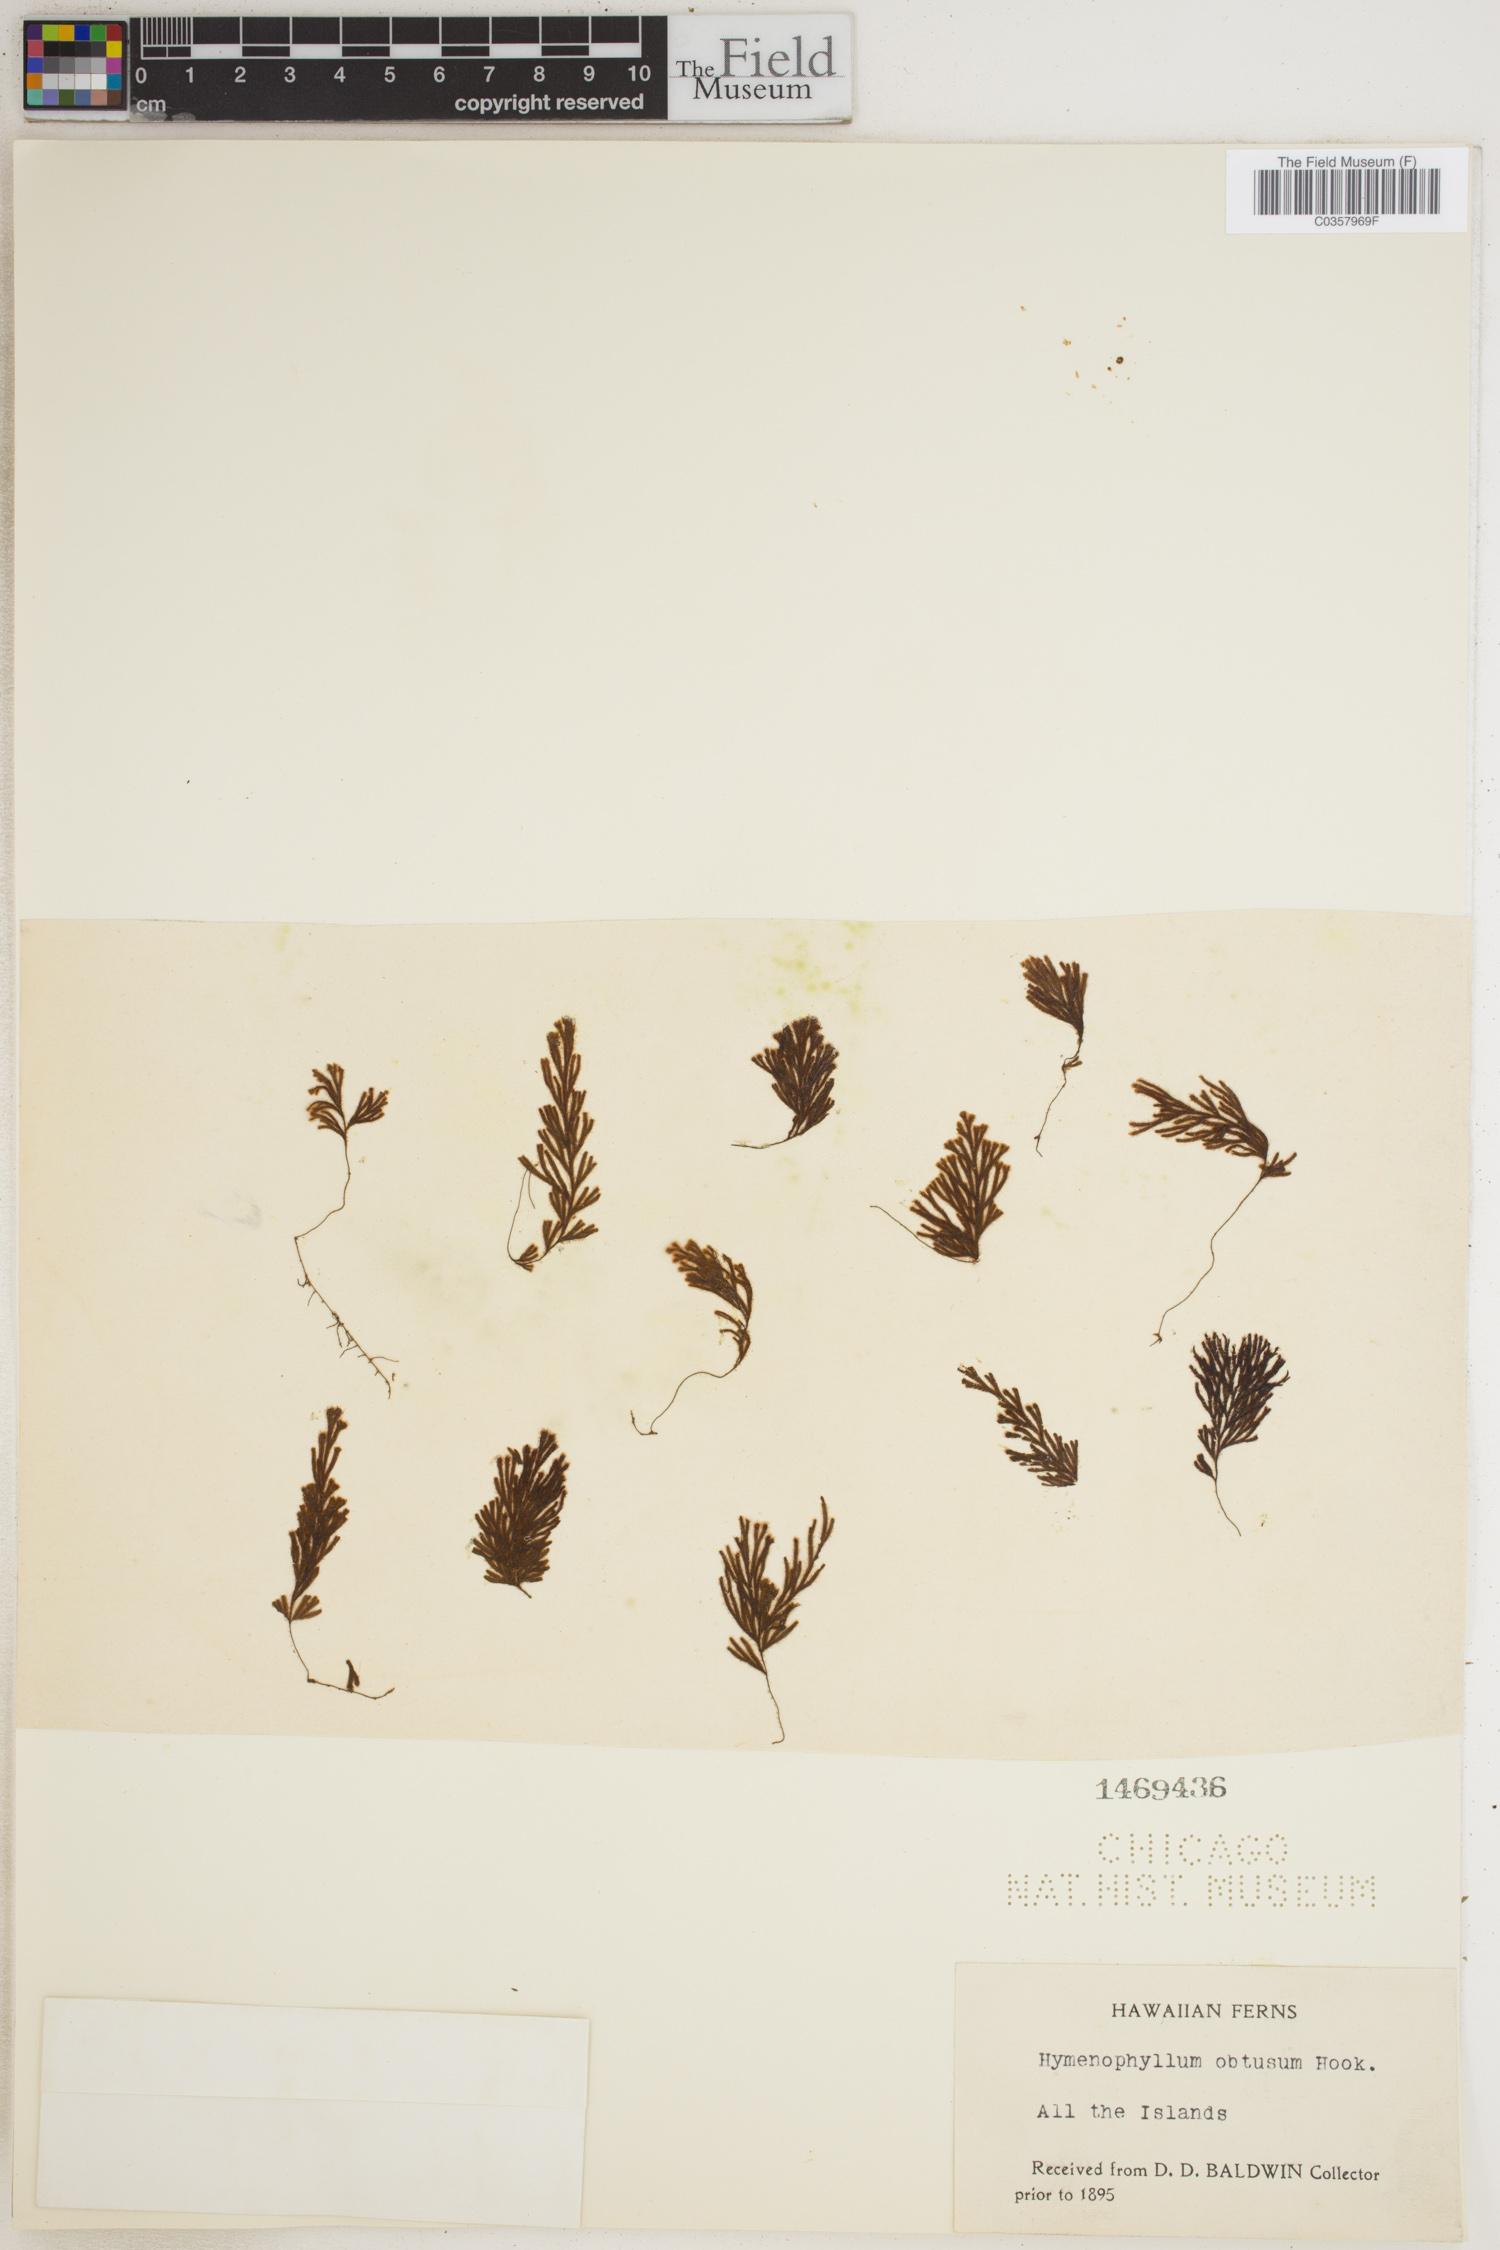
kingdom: Plantae
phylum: Tracheophyta
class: Polypodiopsida
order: Hymenophyllales
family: Hymenophyllaceae
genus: Hymenophyllum
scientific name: Hymenophyllum obtusum
